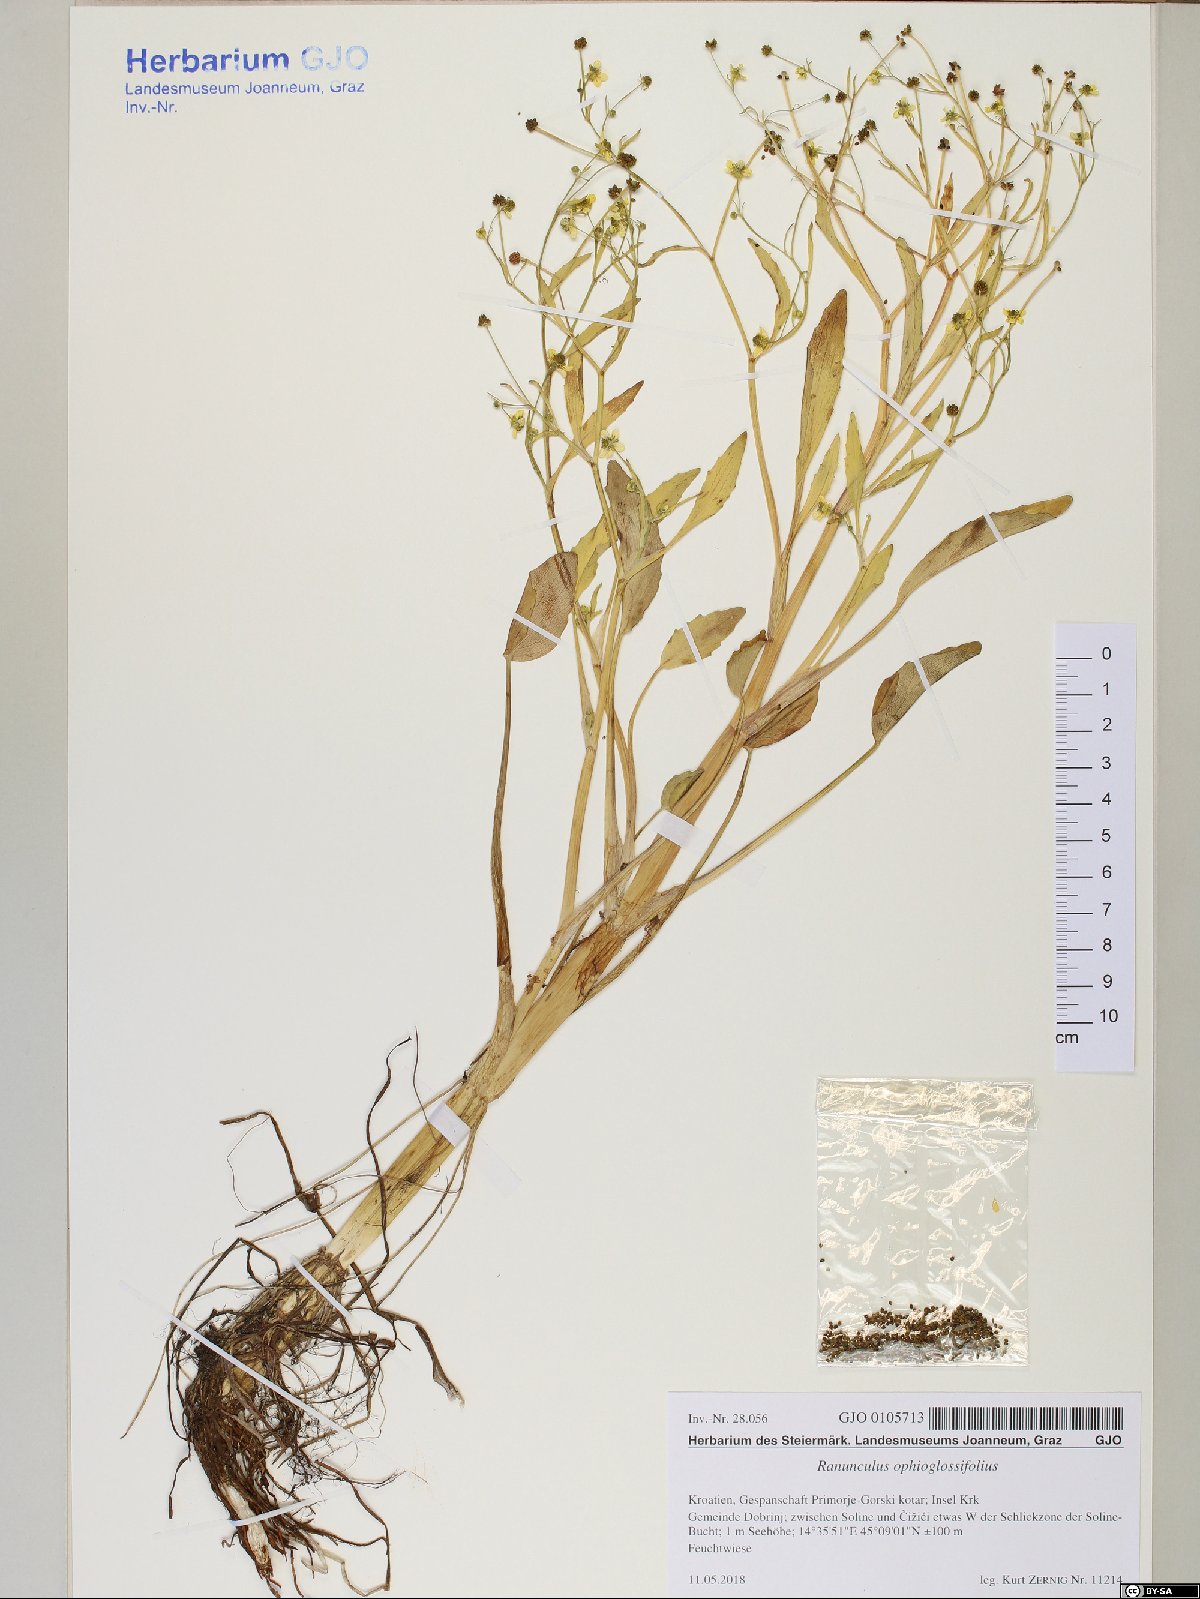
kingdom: Plantae
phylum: Tracheophyta
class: Magnoliopsida
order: Ranunculales
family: Ranunculaceae
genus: Ranunculus
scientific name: Ranunculus ophioglossifolius
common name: Adder's-tongue spearwort
